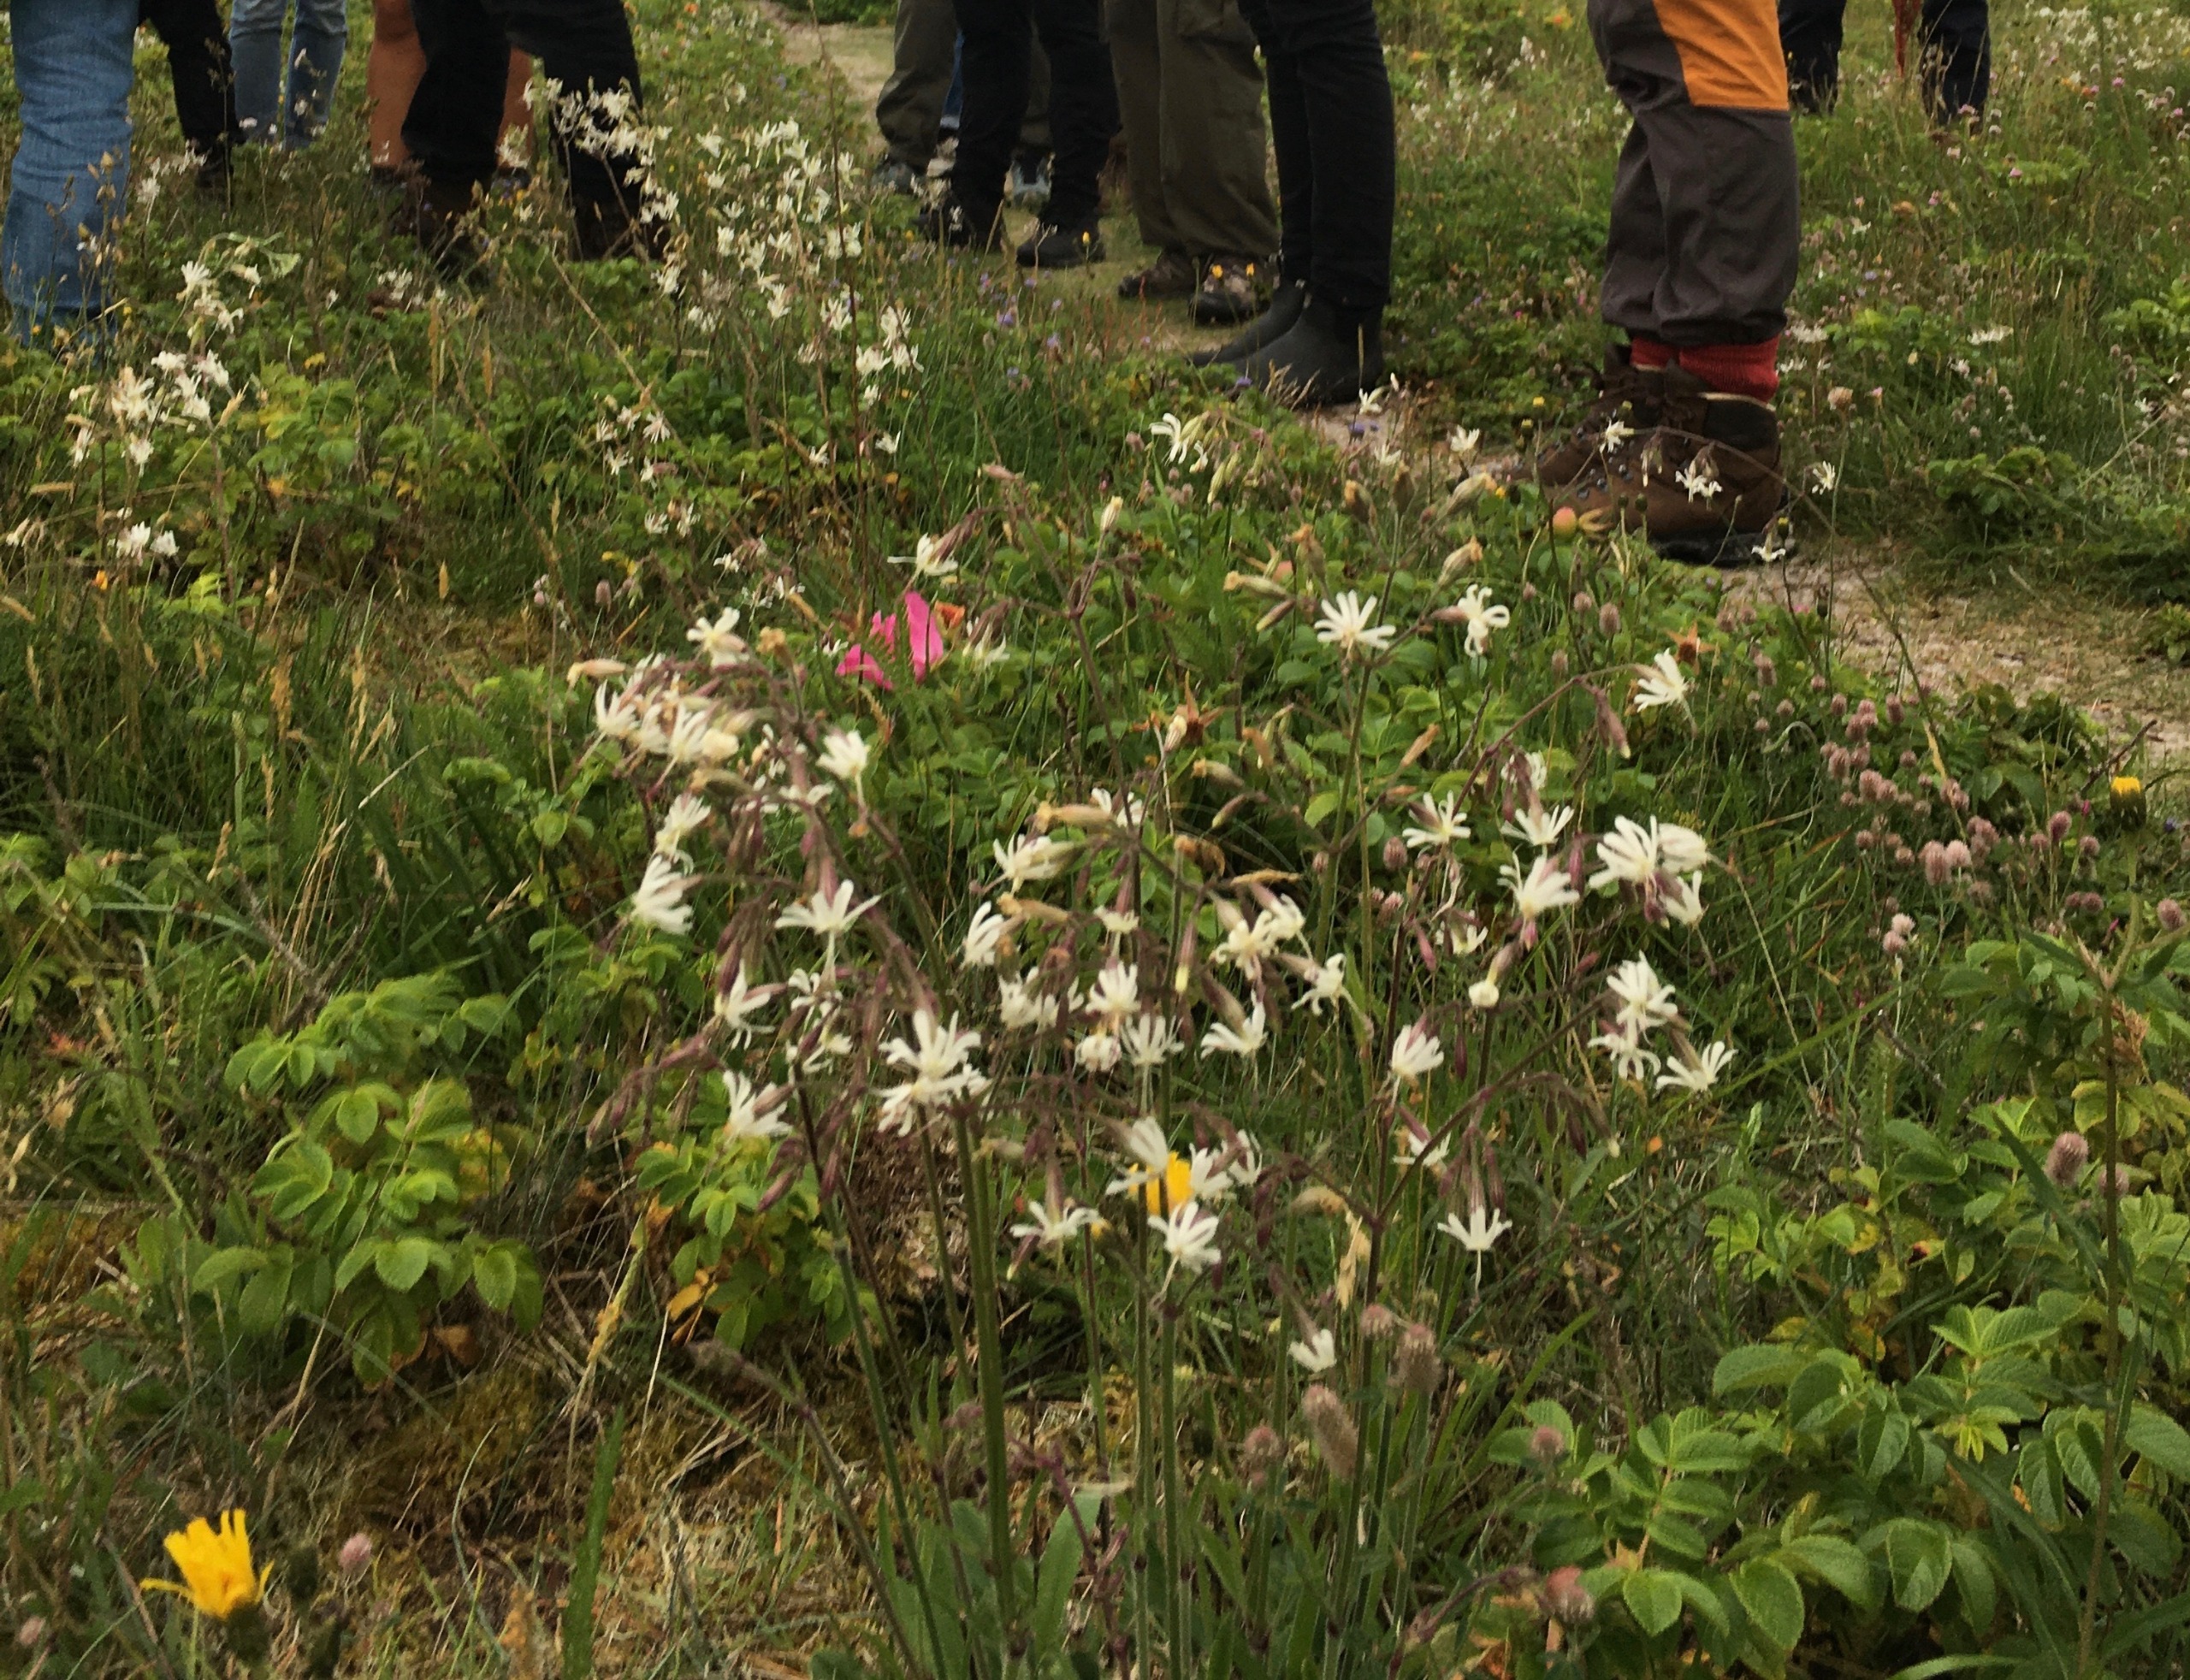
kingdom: Plantae
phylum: Tracheophyta
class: Magnoliopsida
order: Caryophyllales
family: Caryophyllaceae
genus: Silene
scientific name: Silene nutans
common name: Nikkende limurt
